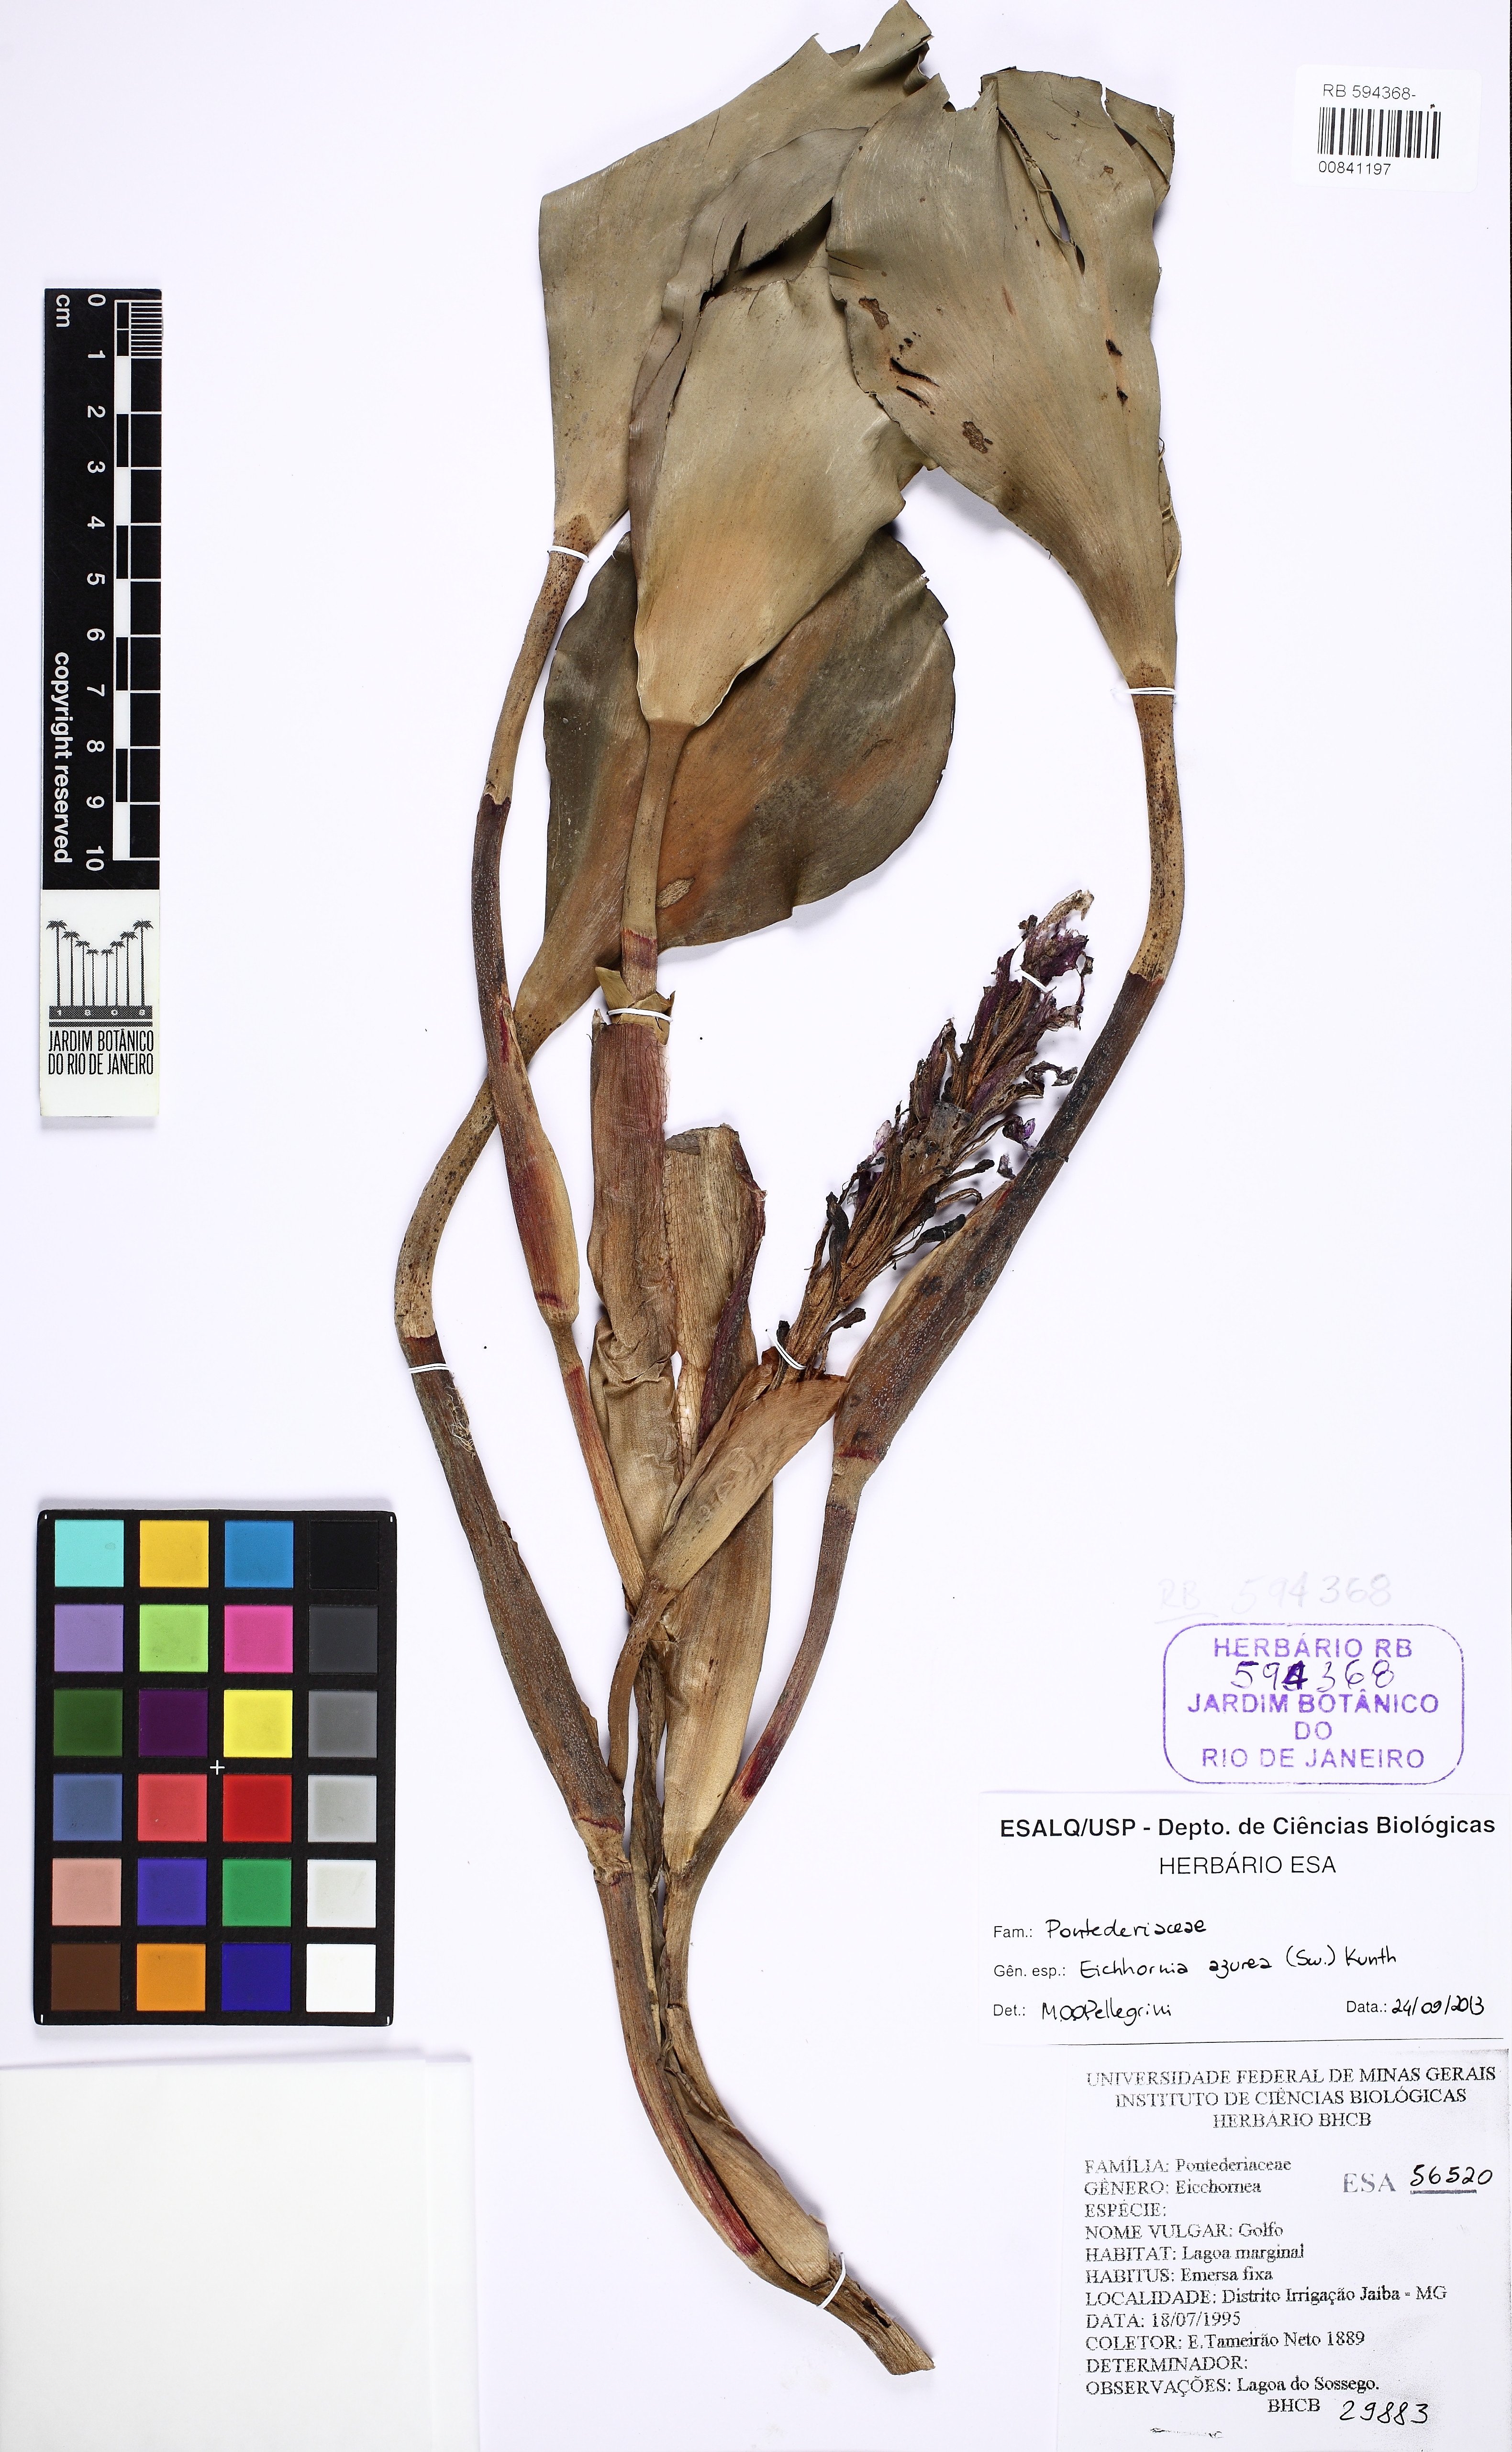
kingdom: Plantae
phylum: Tracheophyta
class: Liliopsida
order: Commelinales
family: Pontederiaceae
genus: Pontederia
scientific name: Pontederia azurea
